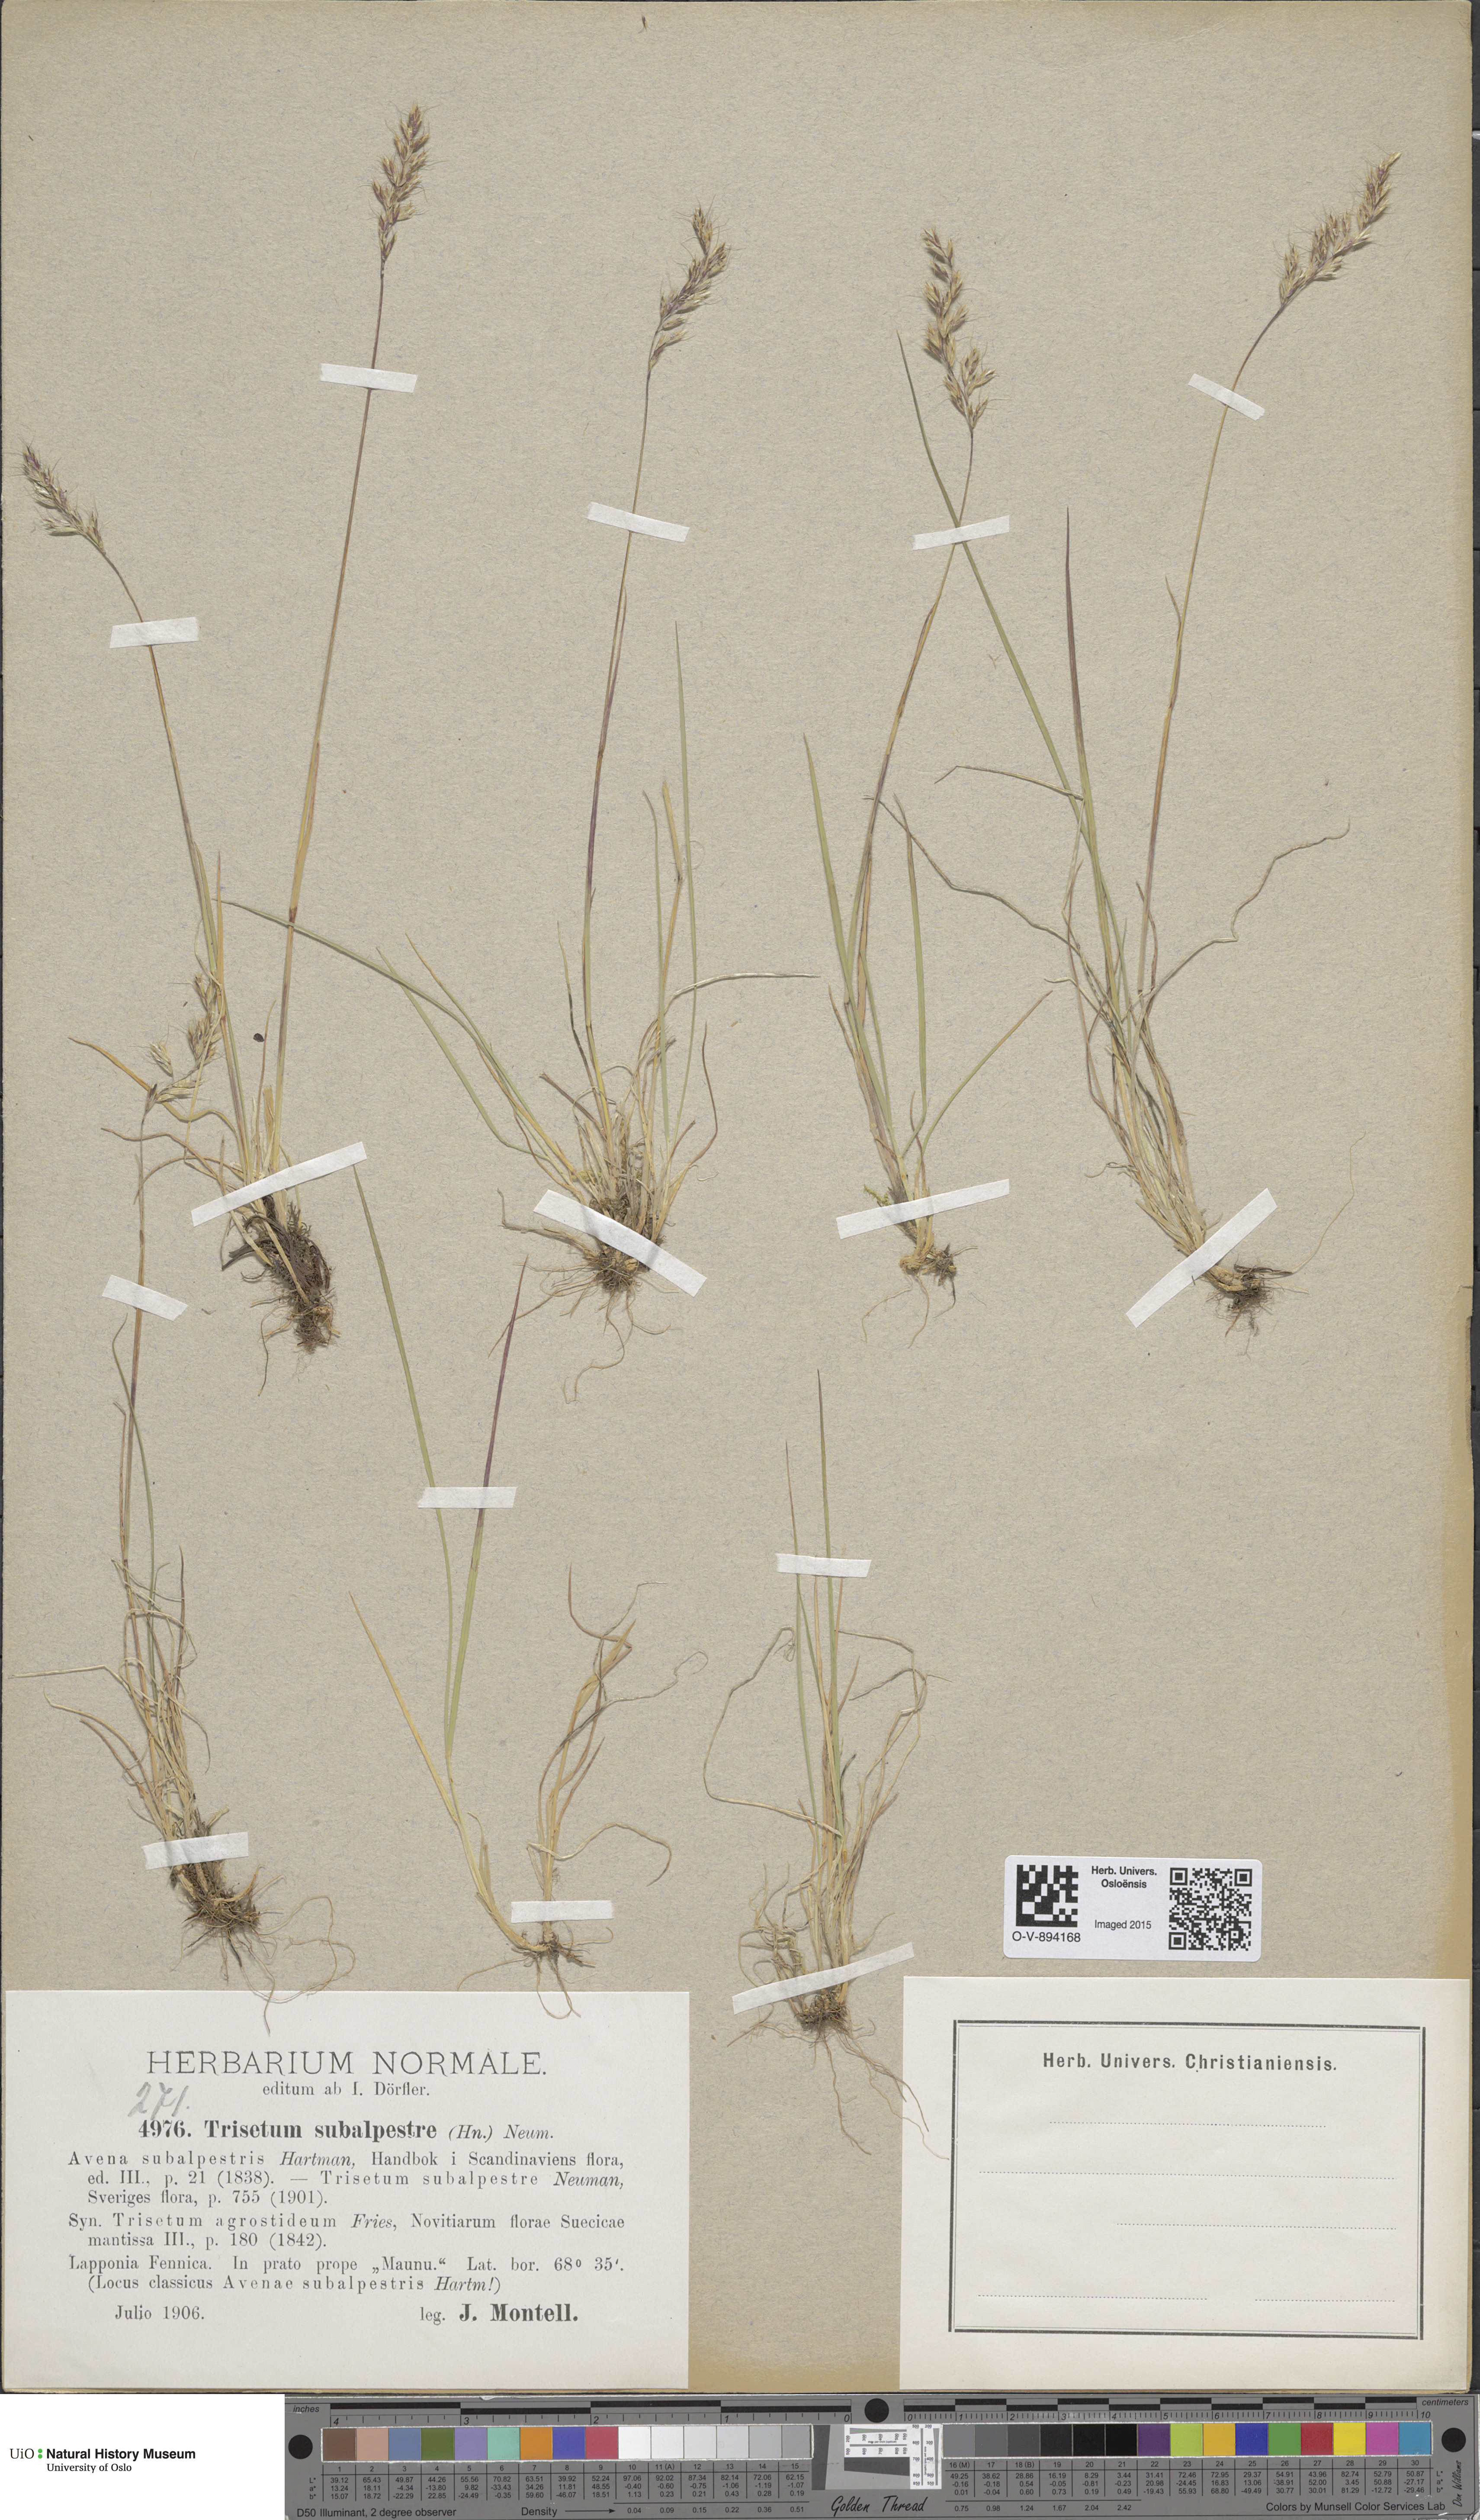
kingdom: Plantae
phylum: Tracheophyta
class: Liliopsida
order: Poales
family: Poaceae
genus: Koeleria
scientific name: Koeleria subalpestris
